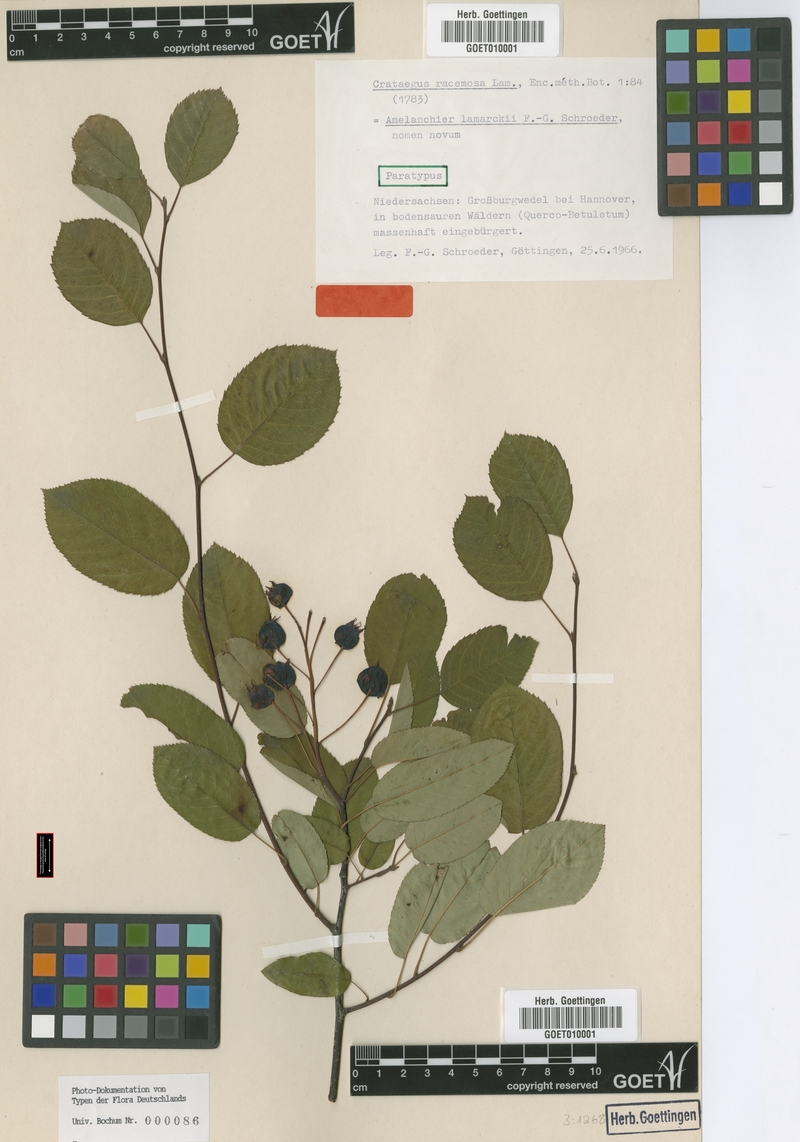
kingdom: Plantae
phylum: Tracheophyta
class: Magnoliopsida
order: Rosales
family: Rosaceae
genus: Amelanchier
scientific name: Amelanchier lamarckii
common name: Juneberry
